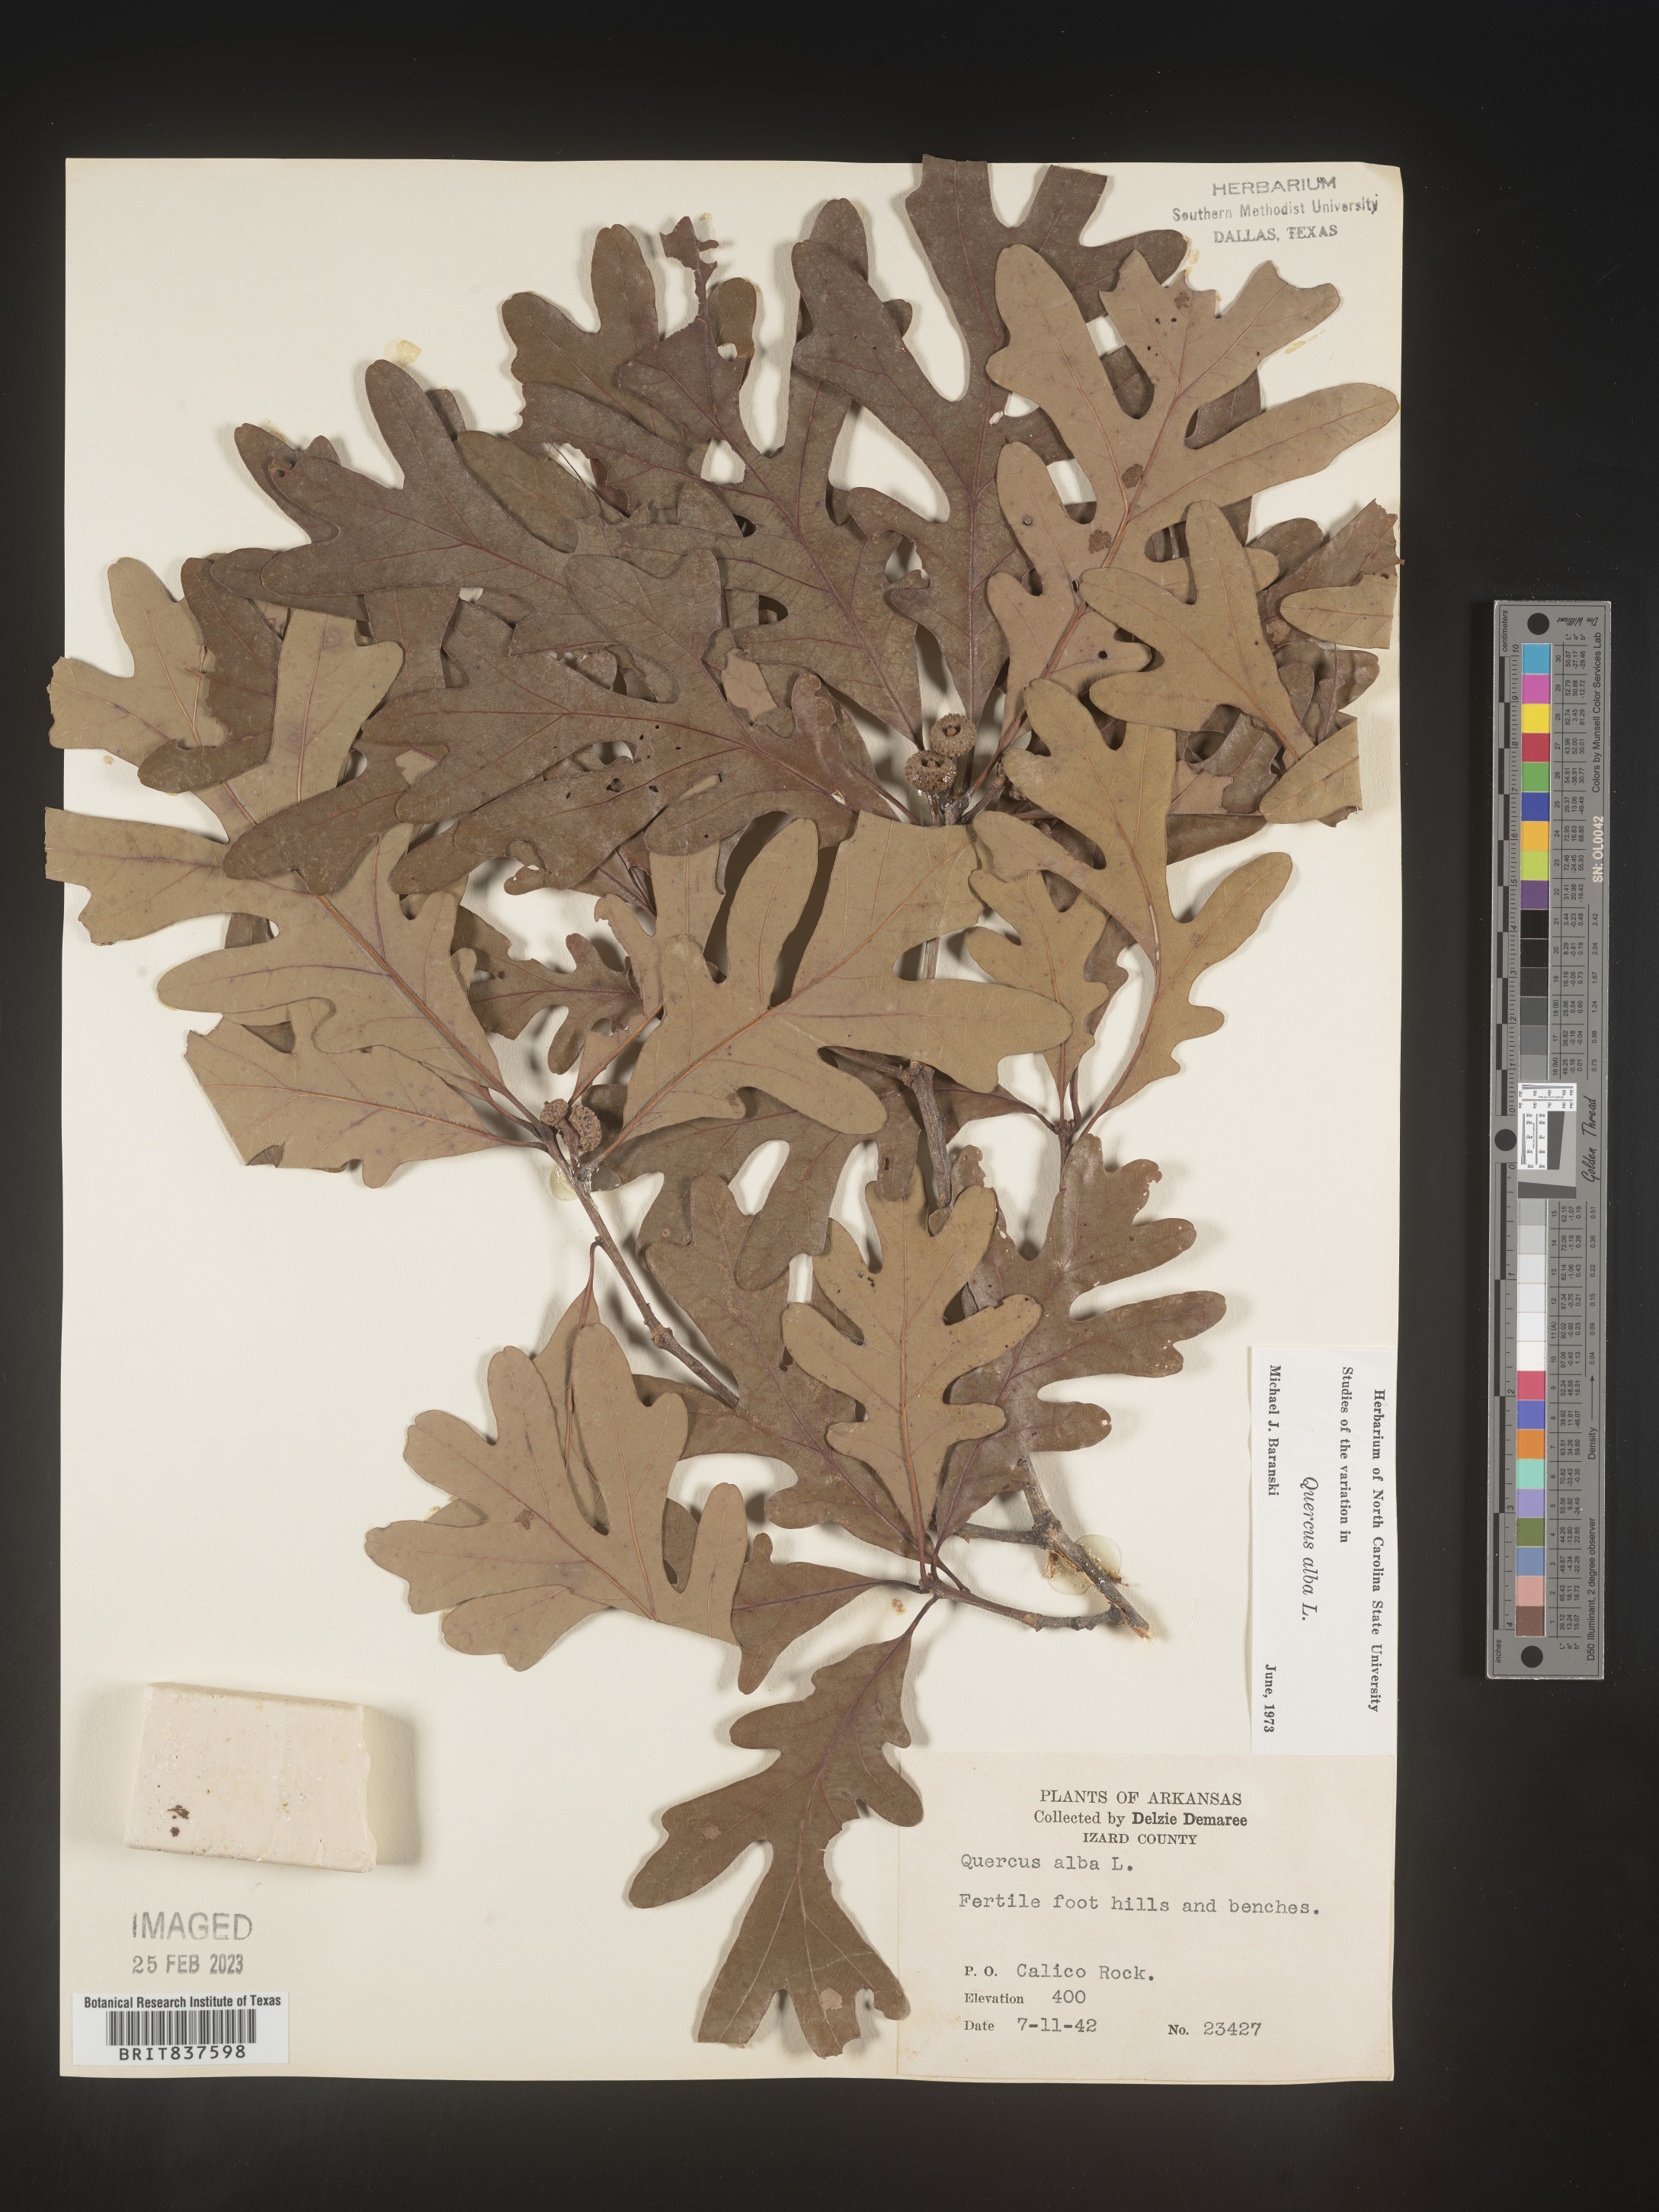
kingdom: Plantae
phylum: Tracheophyta
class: Magnoliopsida
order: Fagales
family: Fagaceae
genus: Quercus
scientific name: Quercus alba
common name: White oak
